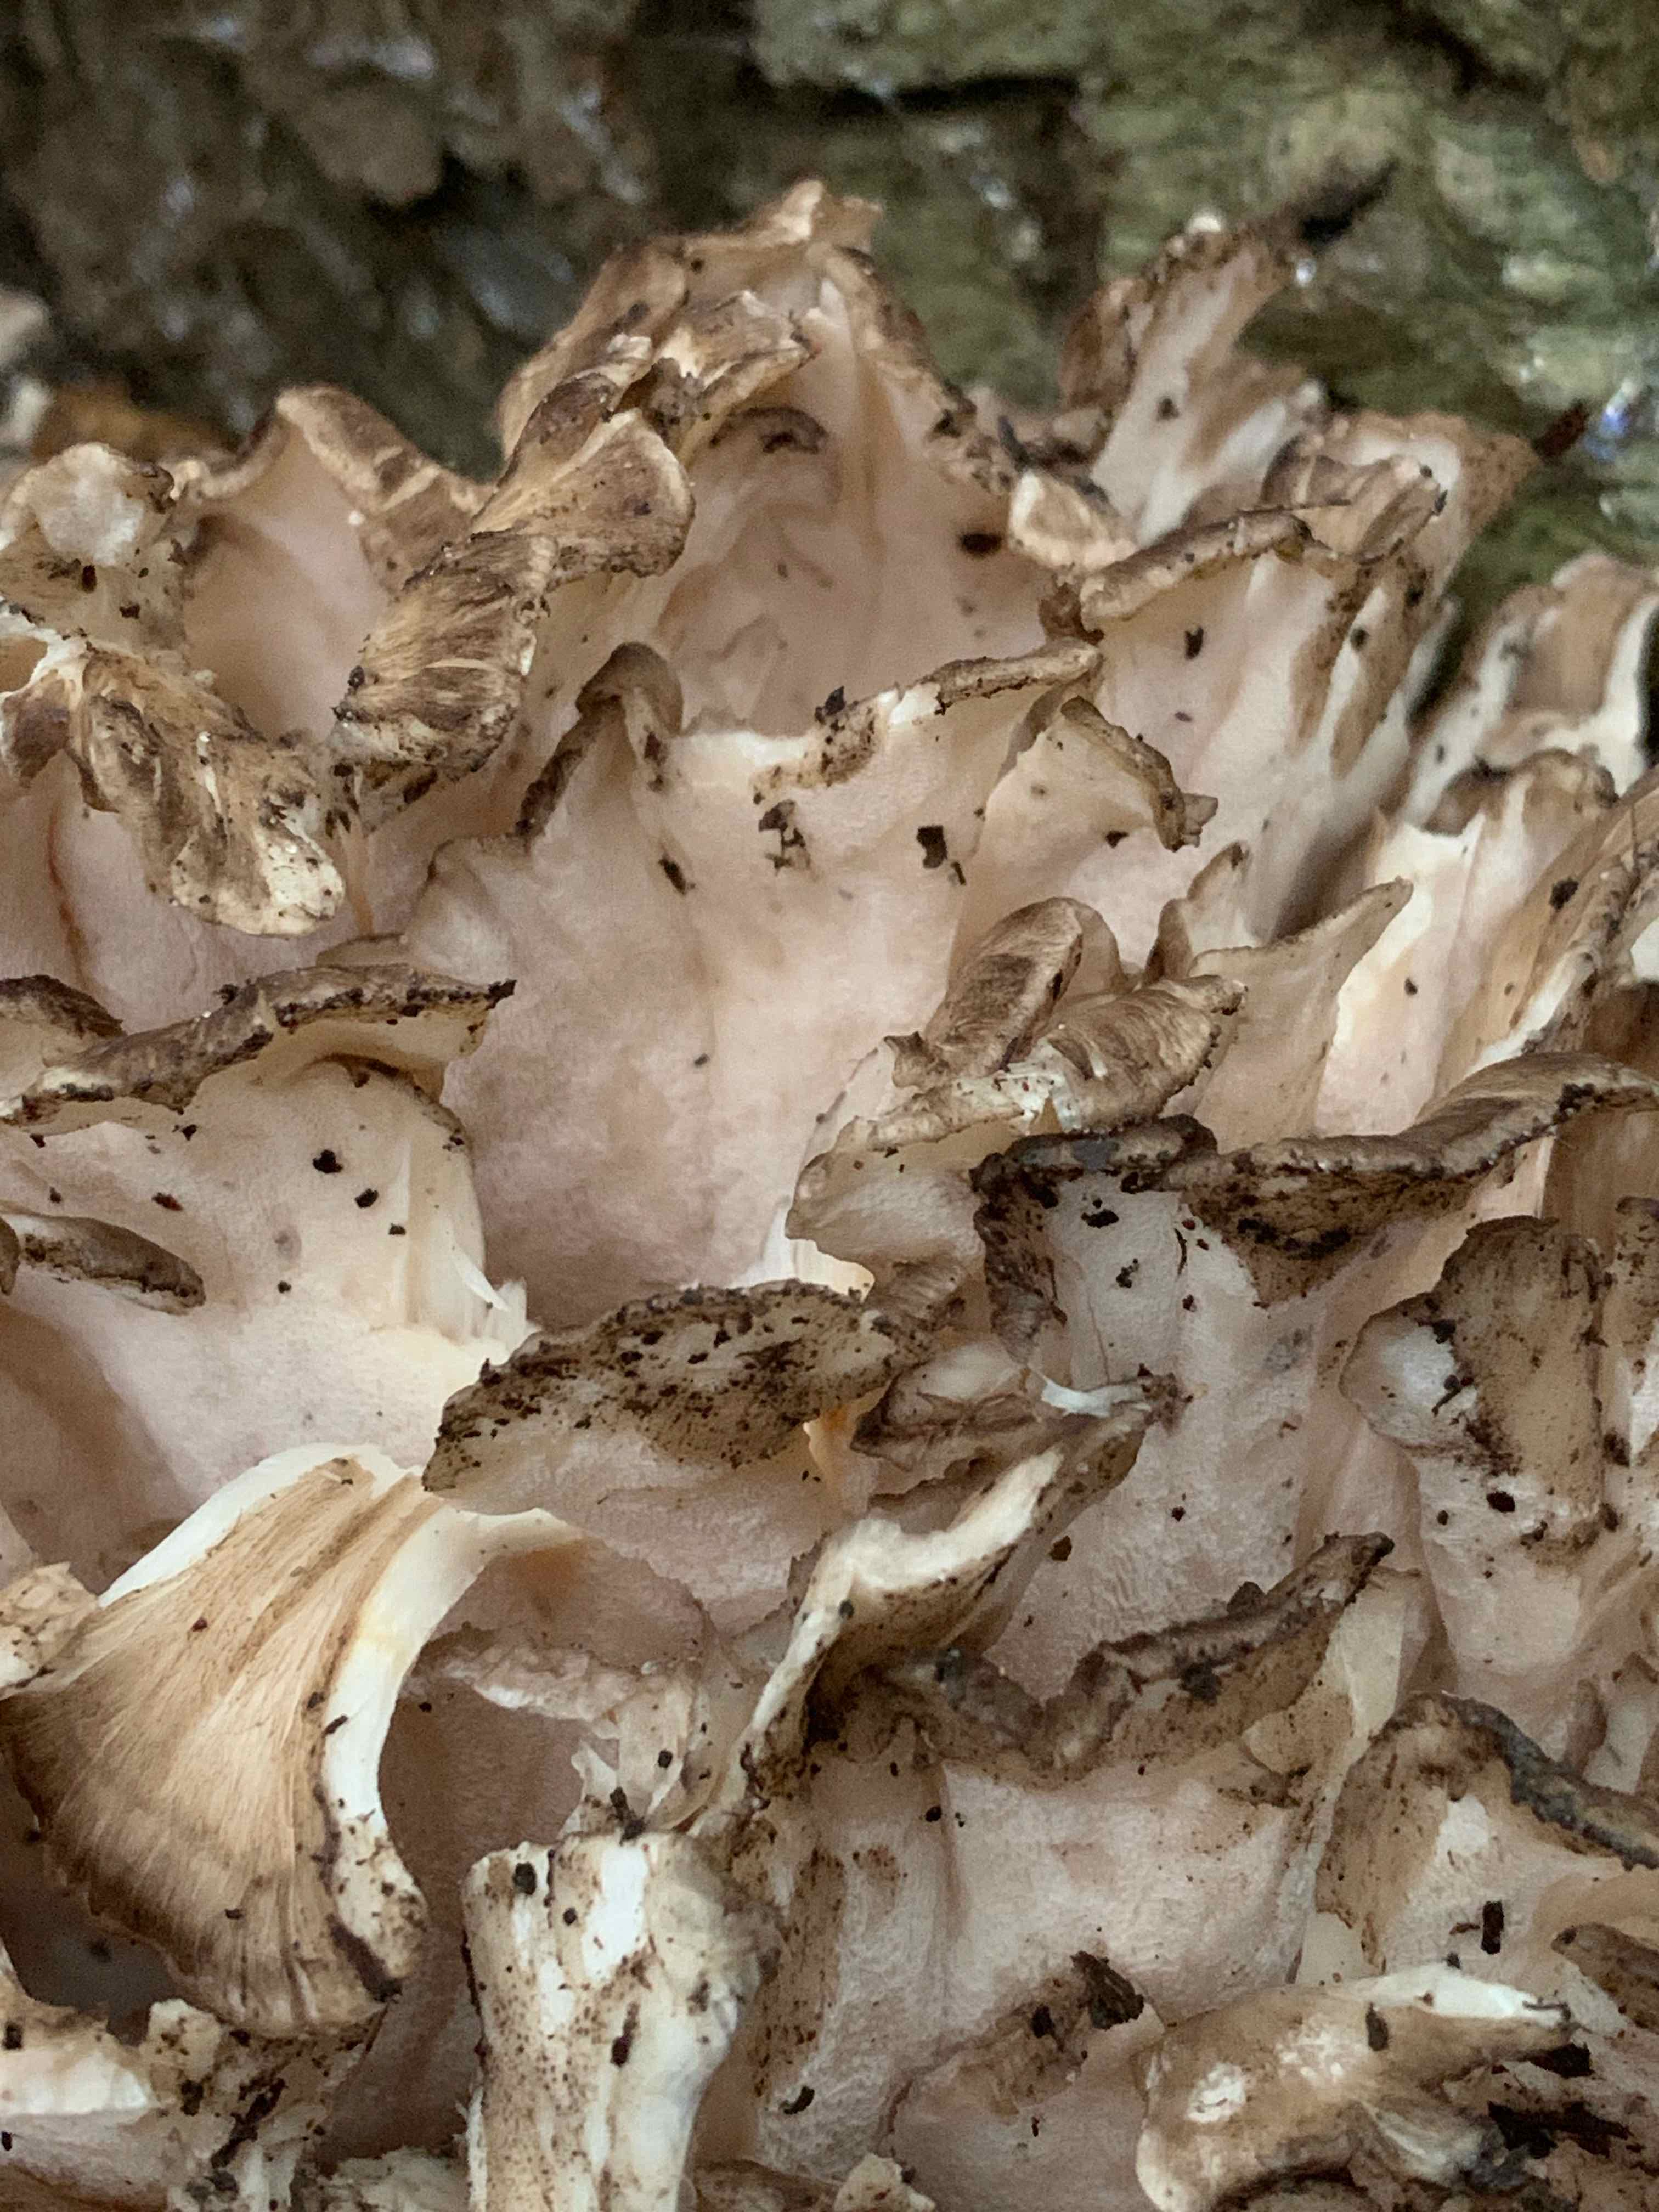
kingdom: Fungi
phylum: Basidiomycota
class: Agaricomycetes
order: Polyporales
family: Grifolaceae
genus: Grifola
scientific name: Grifola frondosa
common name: tueporesvamp
